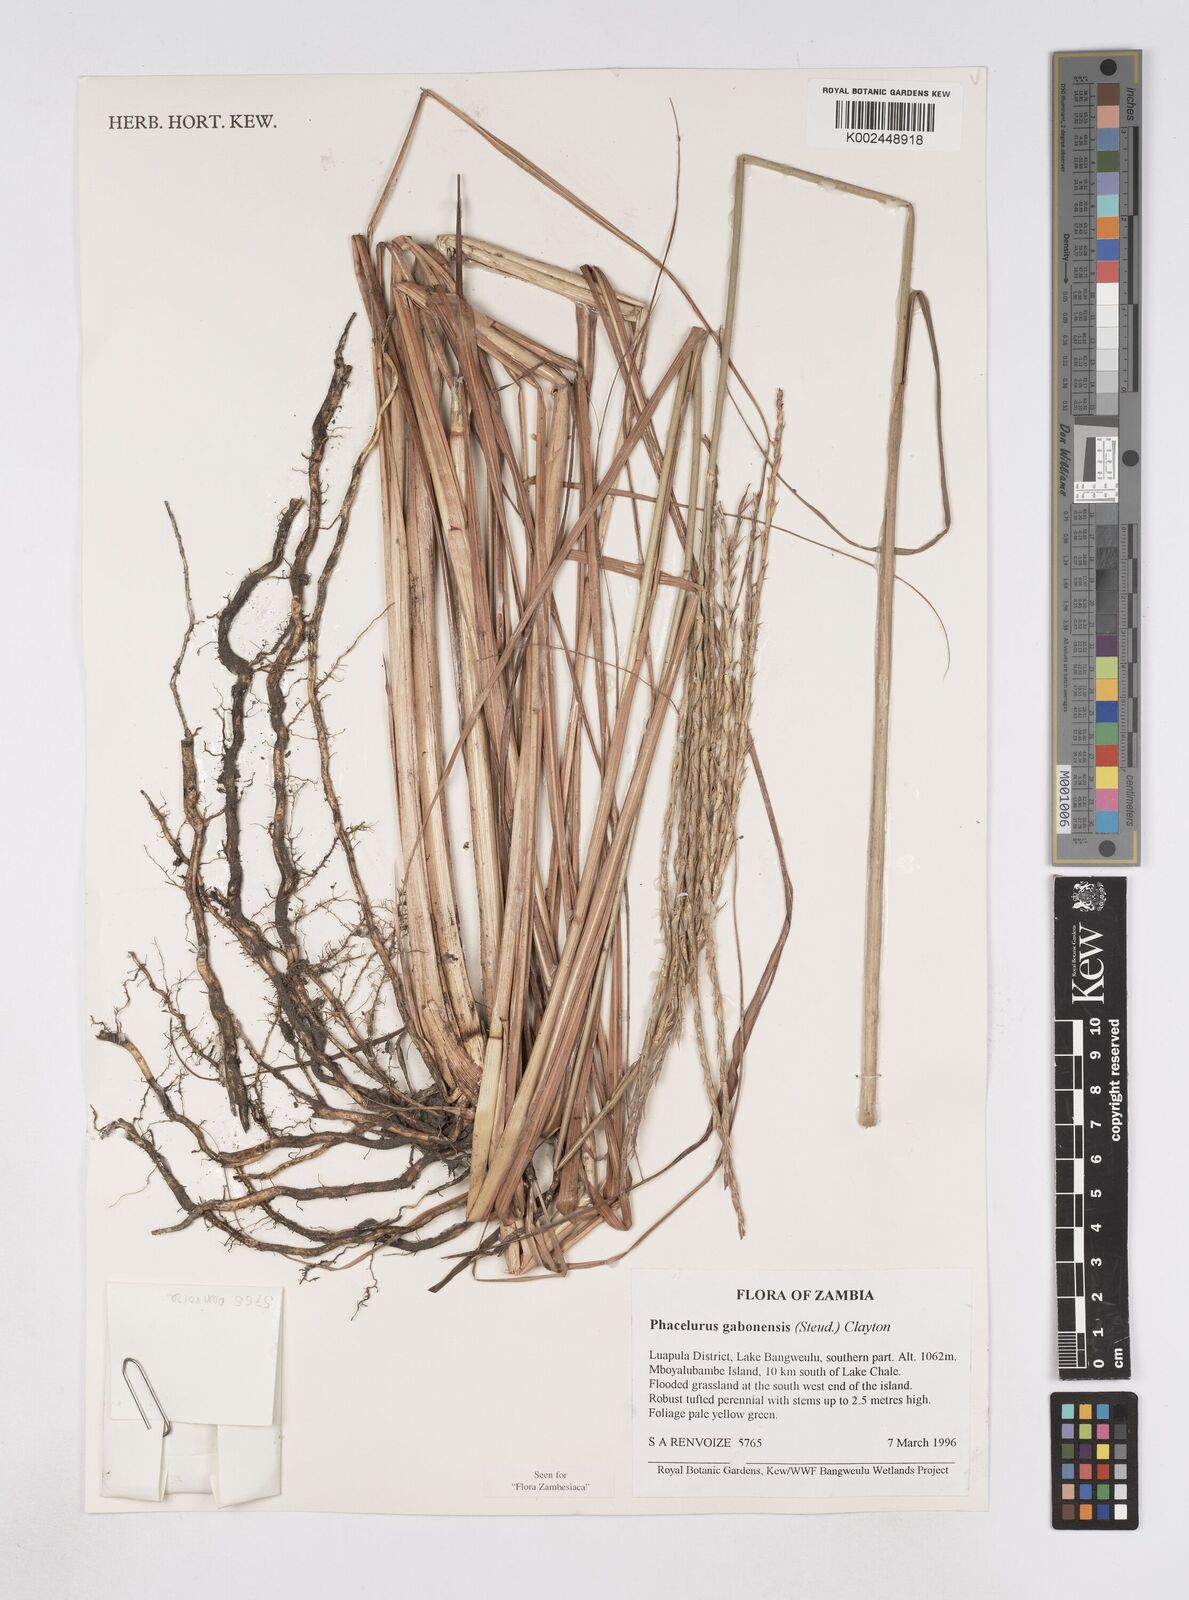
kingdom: Plantae
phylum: Tracheophyta
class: Liliopsida
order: Poales
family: Poaceae
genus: Phacelurus
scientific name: Phacelurus gabonensis
